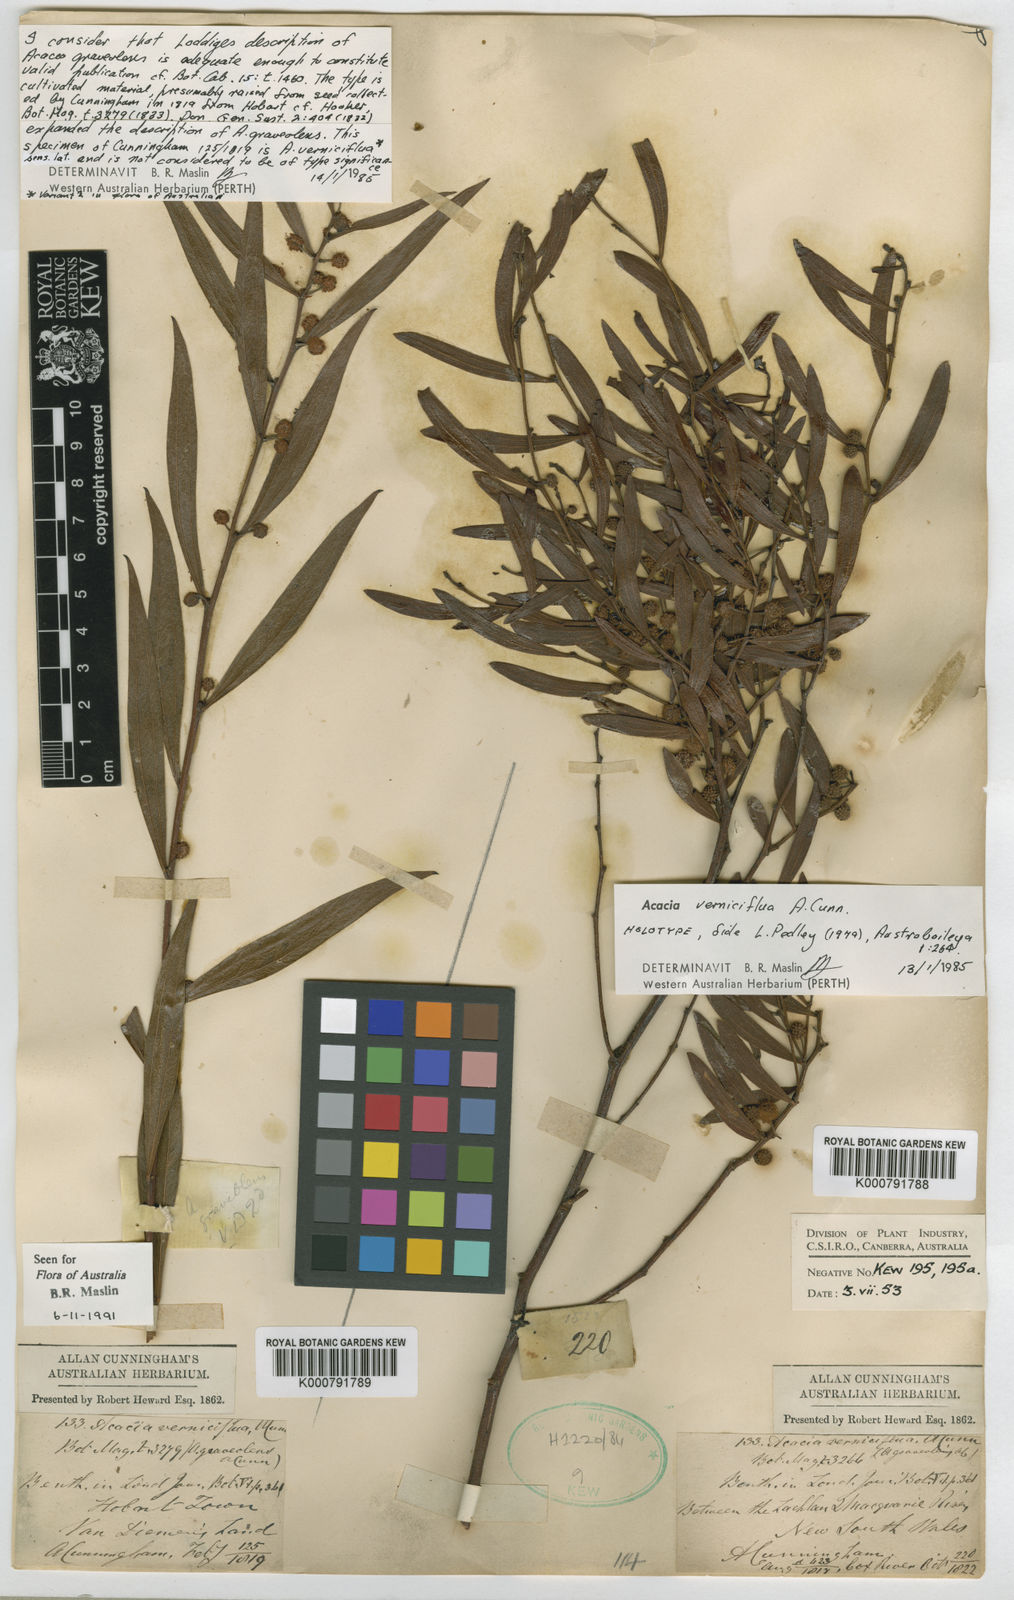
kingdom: Plantae
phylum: Tracheophyta
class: Magnoliopsida
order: Fabales
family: Fabaceae
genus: Acacia
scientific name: Acacia verniciflua
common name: Varnish wattle
